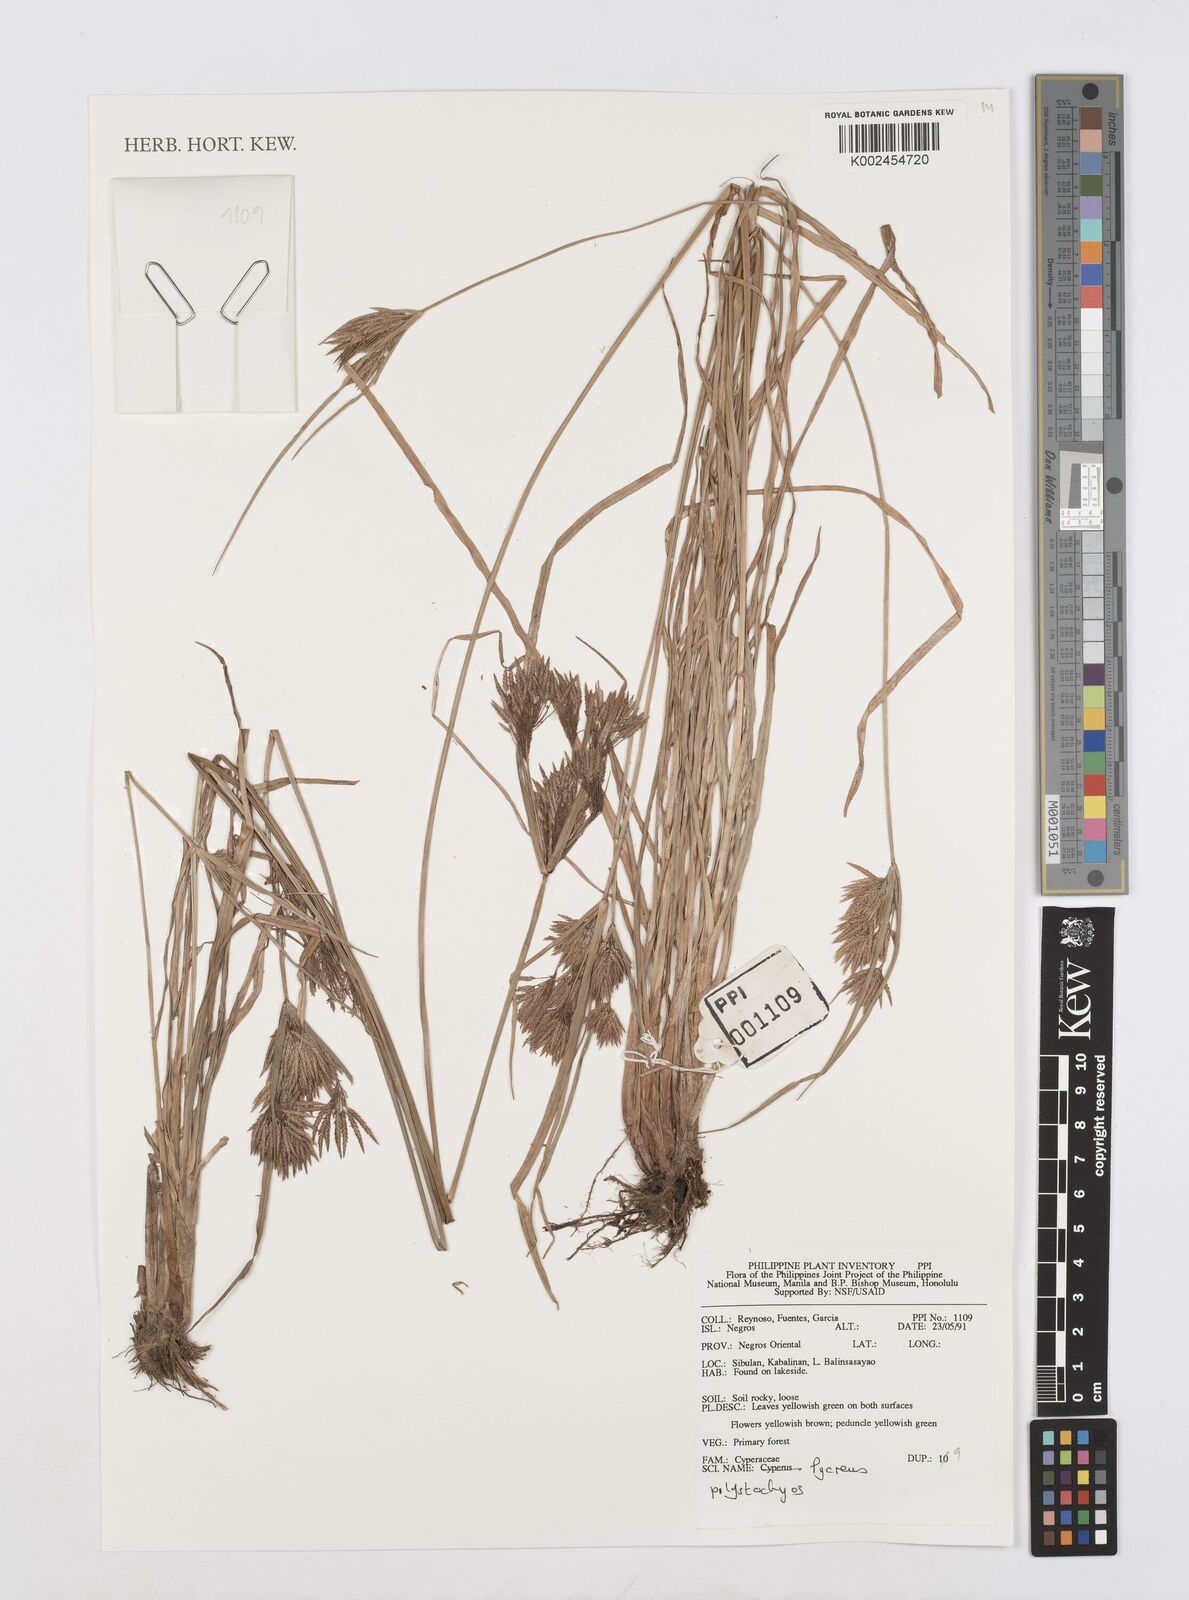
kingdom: Plantae
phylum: Tracheophyta
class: Liliopsida
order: Poales
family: Cyperaceae
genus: Cyperus
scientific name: Cyperus polystachyos
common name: Bunchy flat sedge
